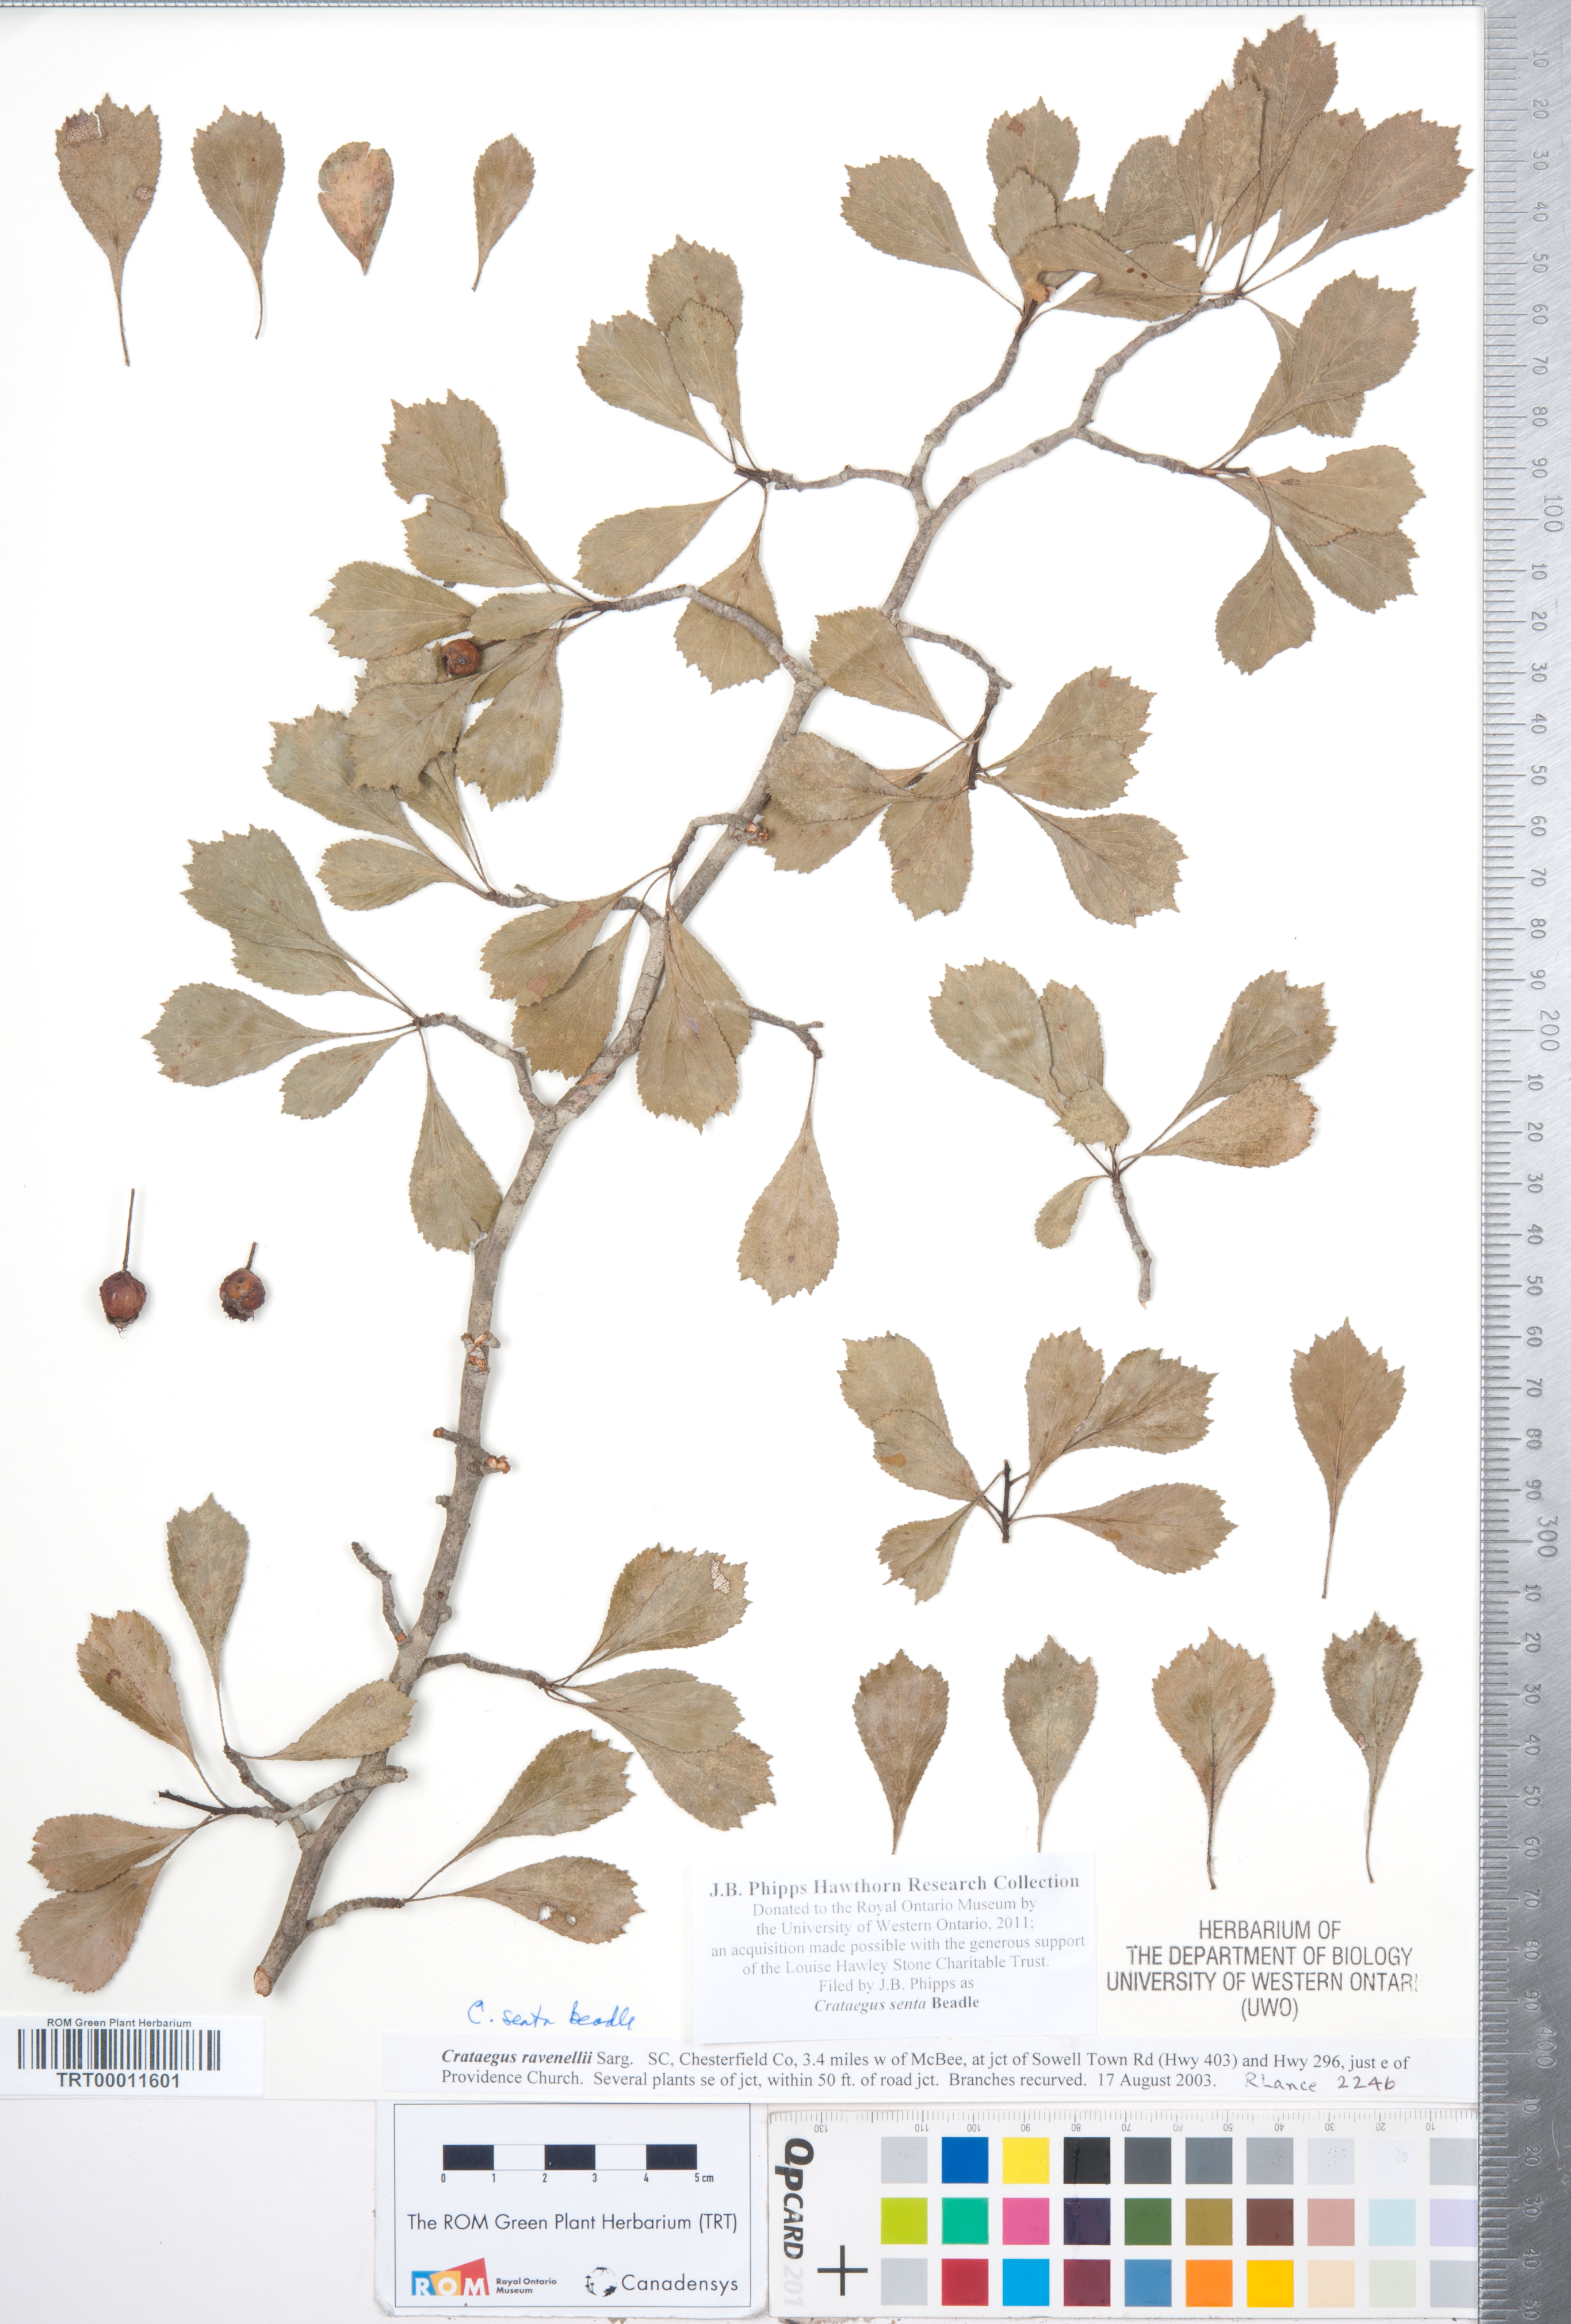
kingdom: Plantae
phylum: Tracheophyta
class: Magnoliopsida
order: Rosales
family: Rosaceae
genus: Crataegus
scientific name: Crataegus senta
